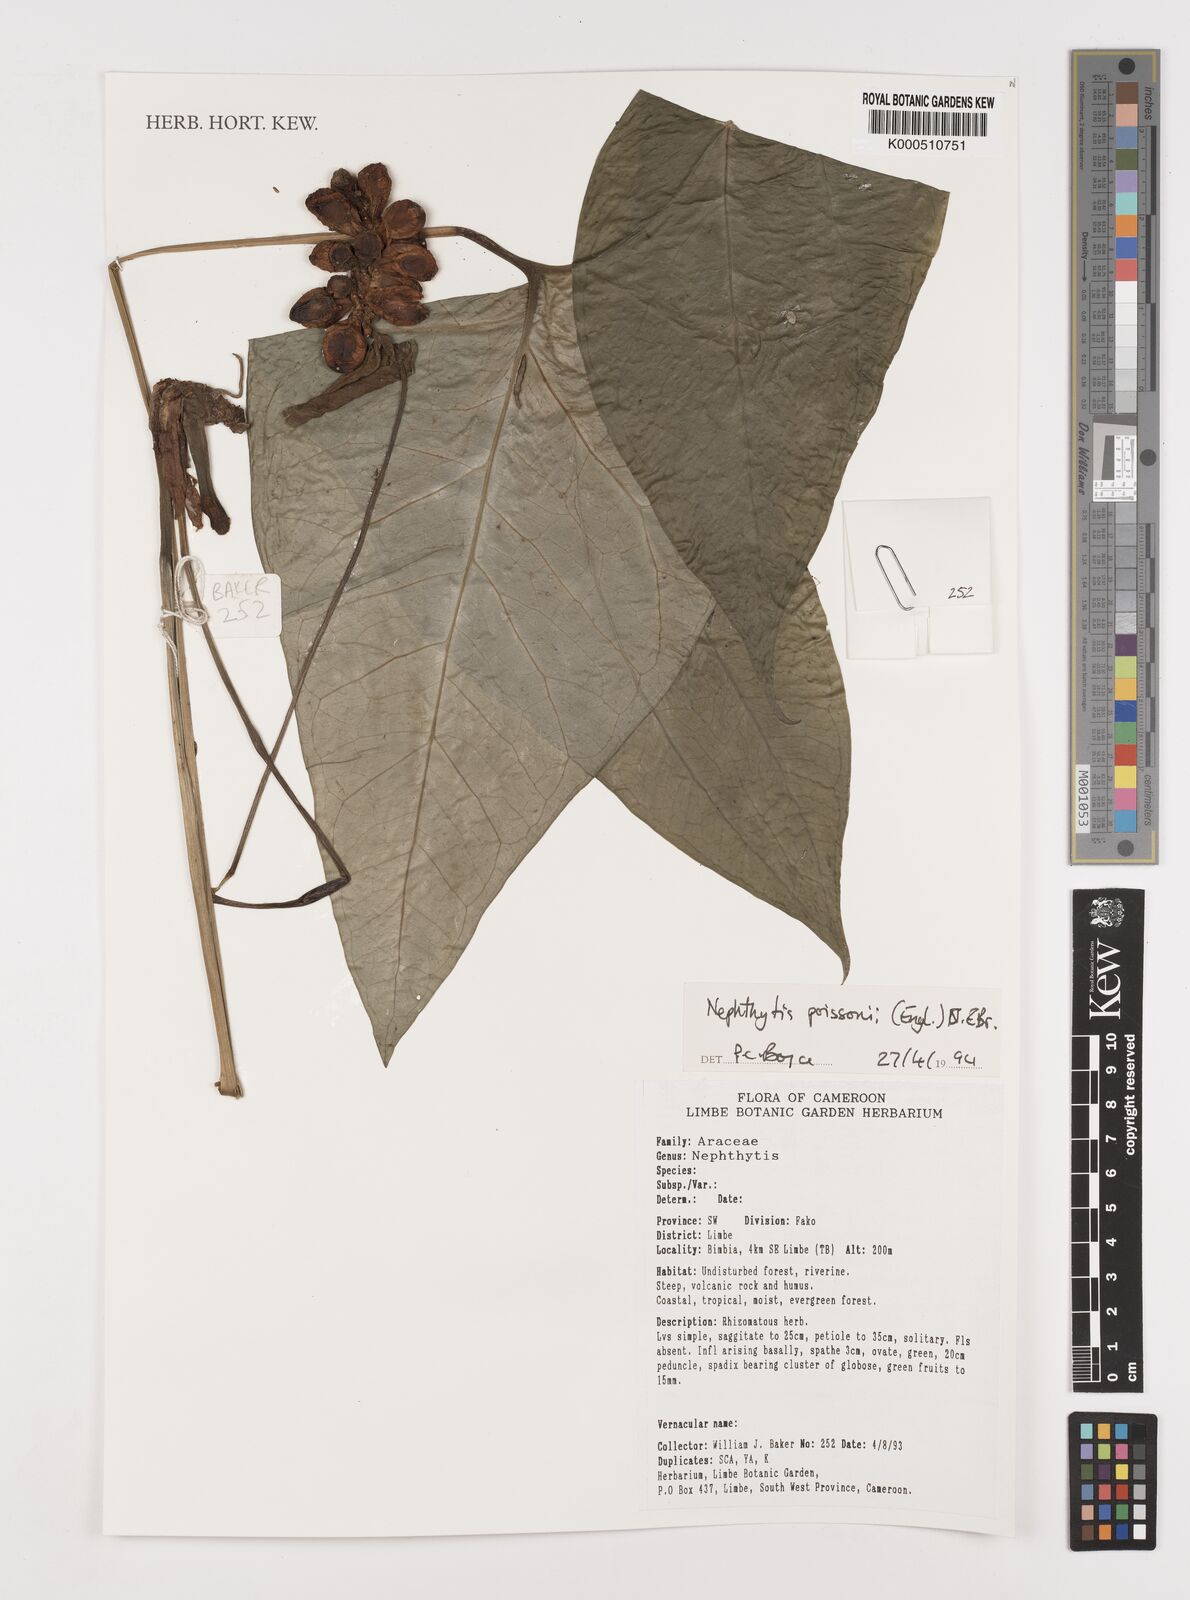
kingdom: Plantae
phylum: Tracheophyta
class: Liliopsida
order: Alismatales
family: Araceae
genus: Nephthytis
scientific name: Nephthytis poissonii
